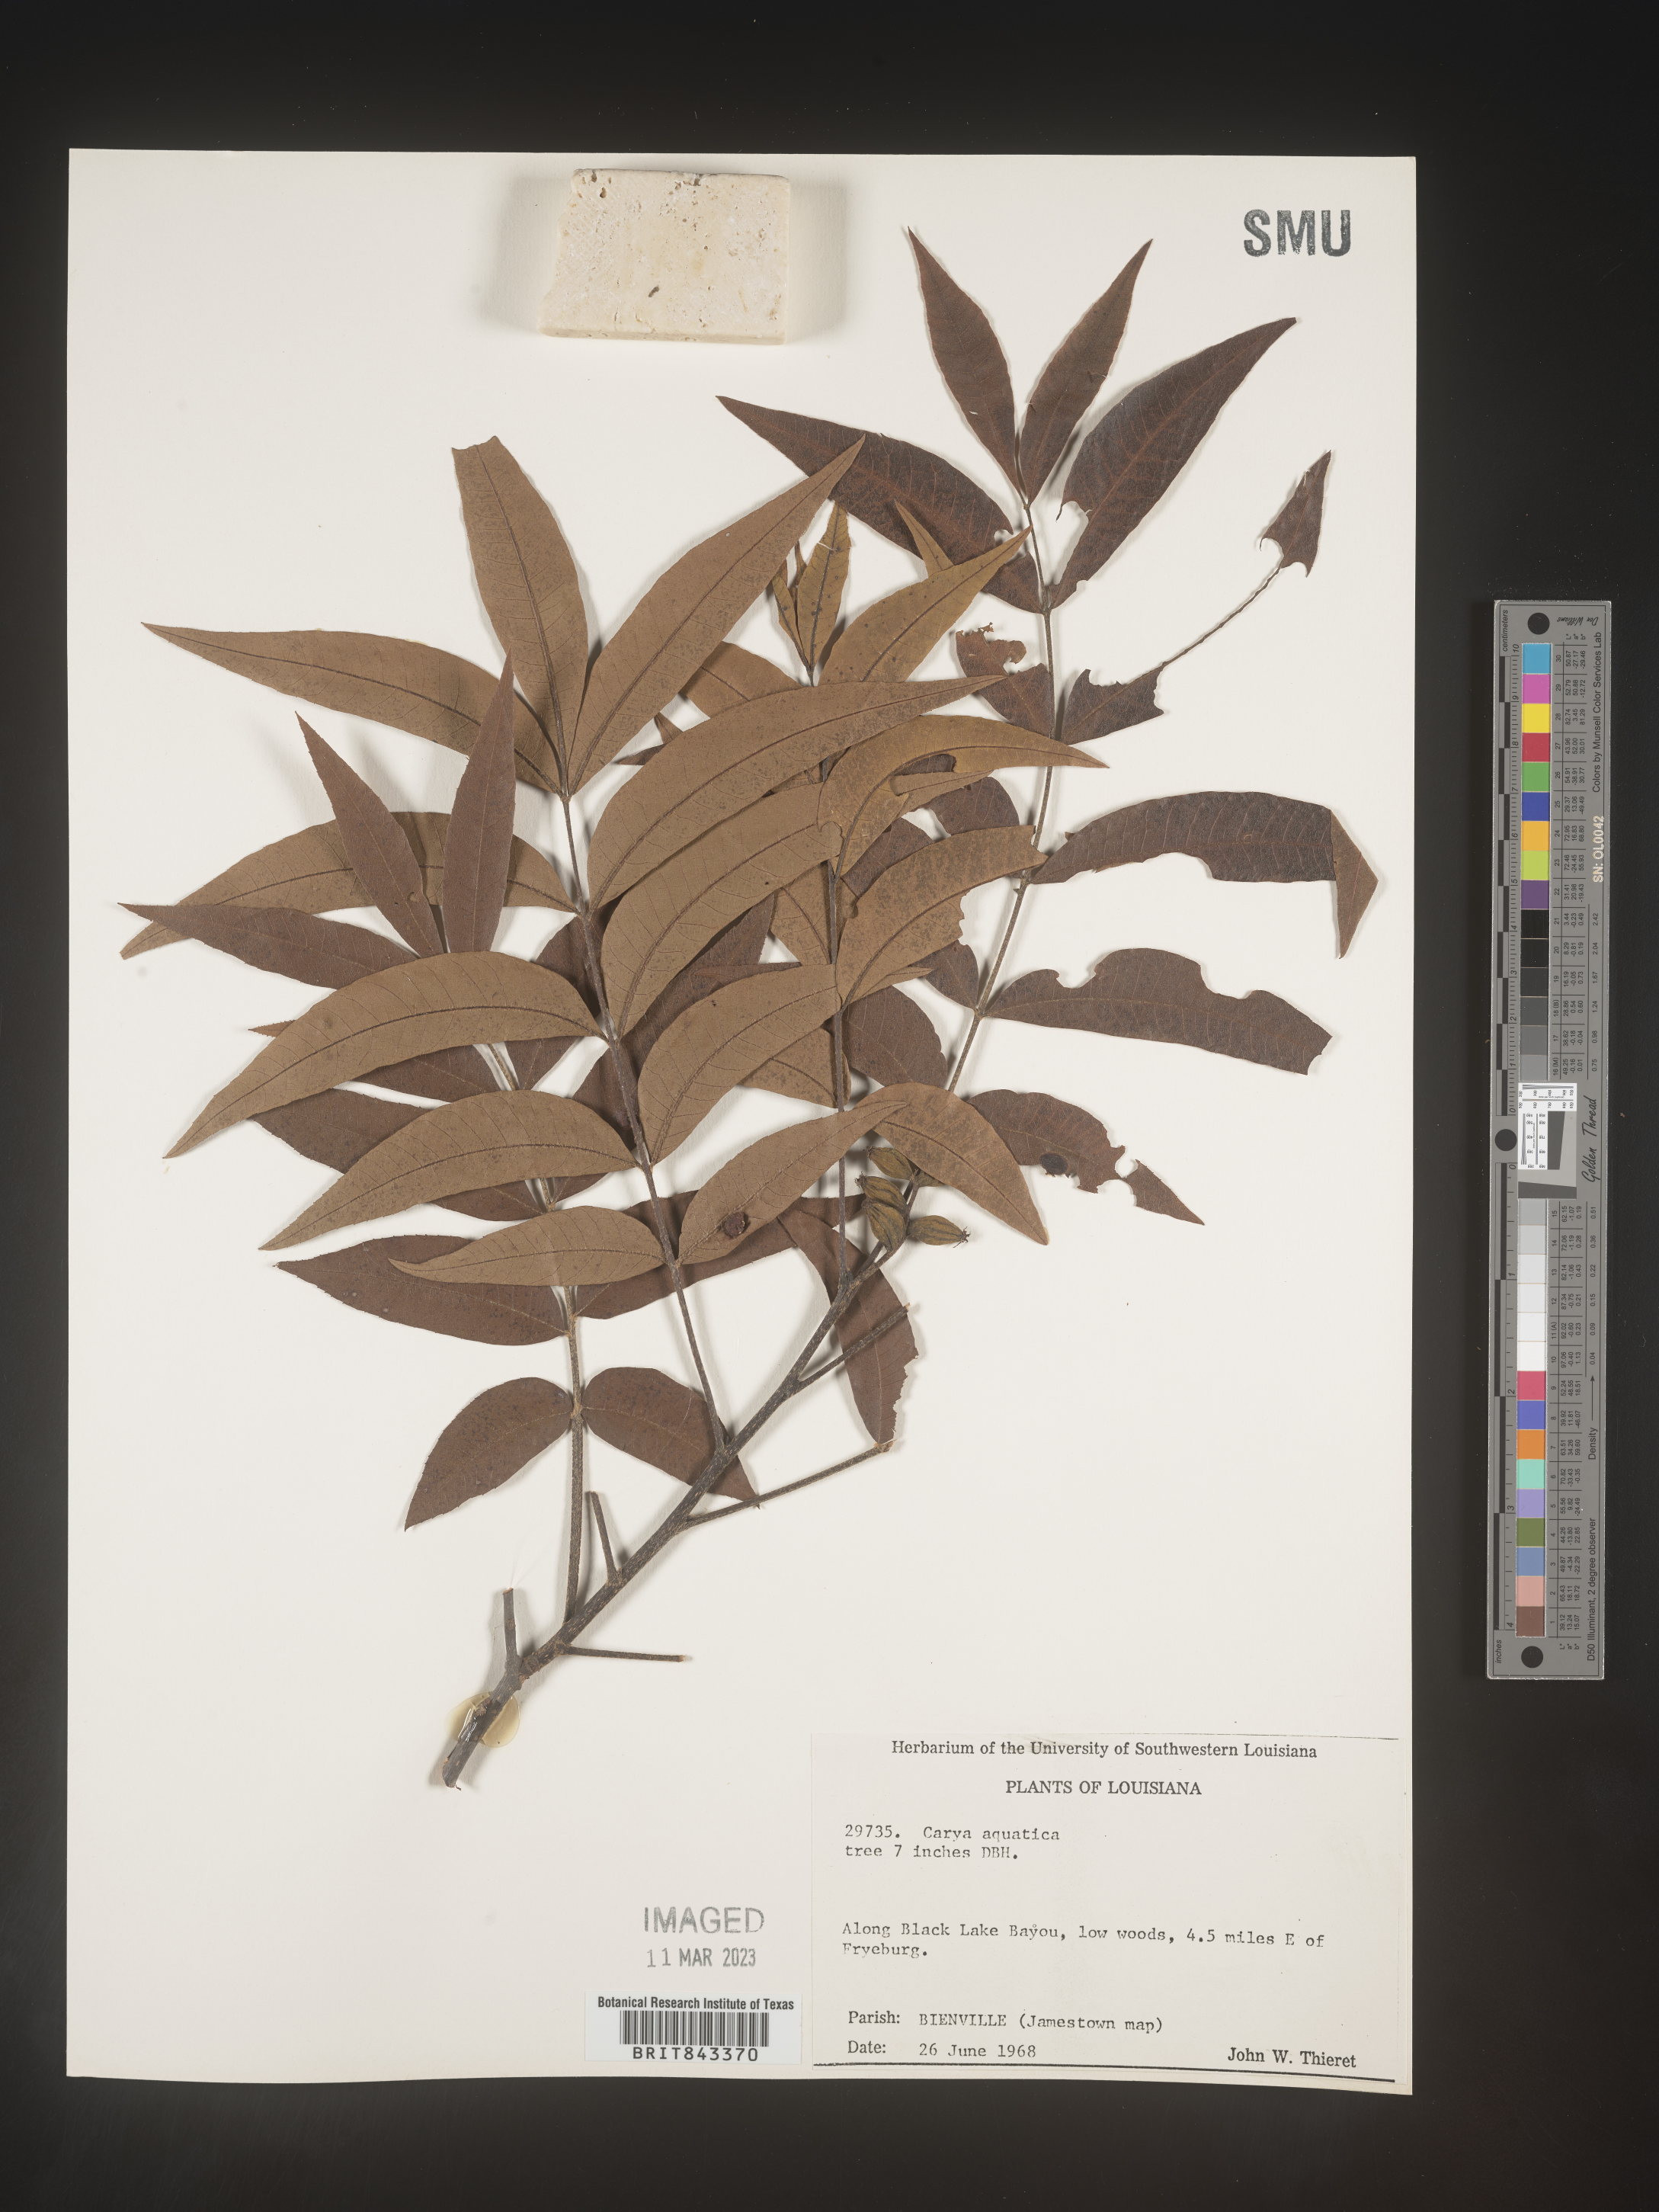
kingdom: Plantae
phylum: Tracheophyta
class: Magnoliopsida
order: Fagales
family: Juglandaceae
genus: Carya
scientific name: Carya aquatica
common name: Water hickory
